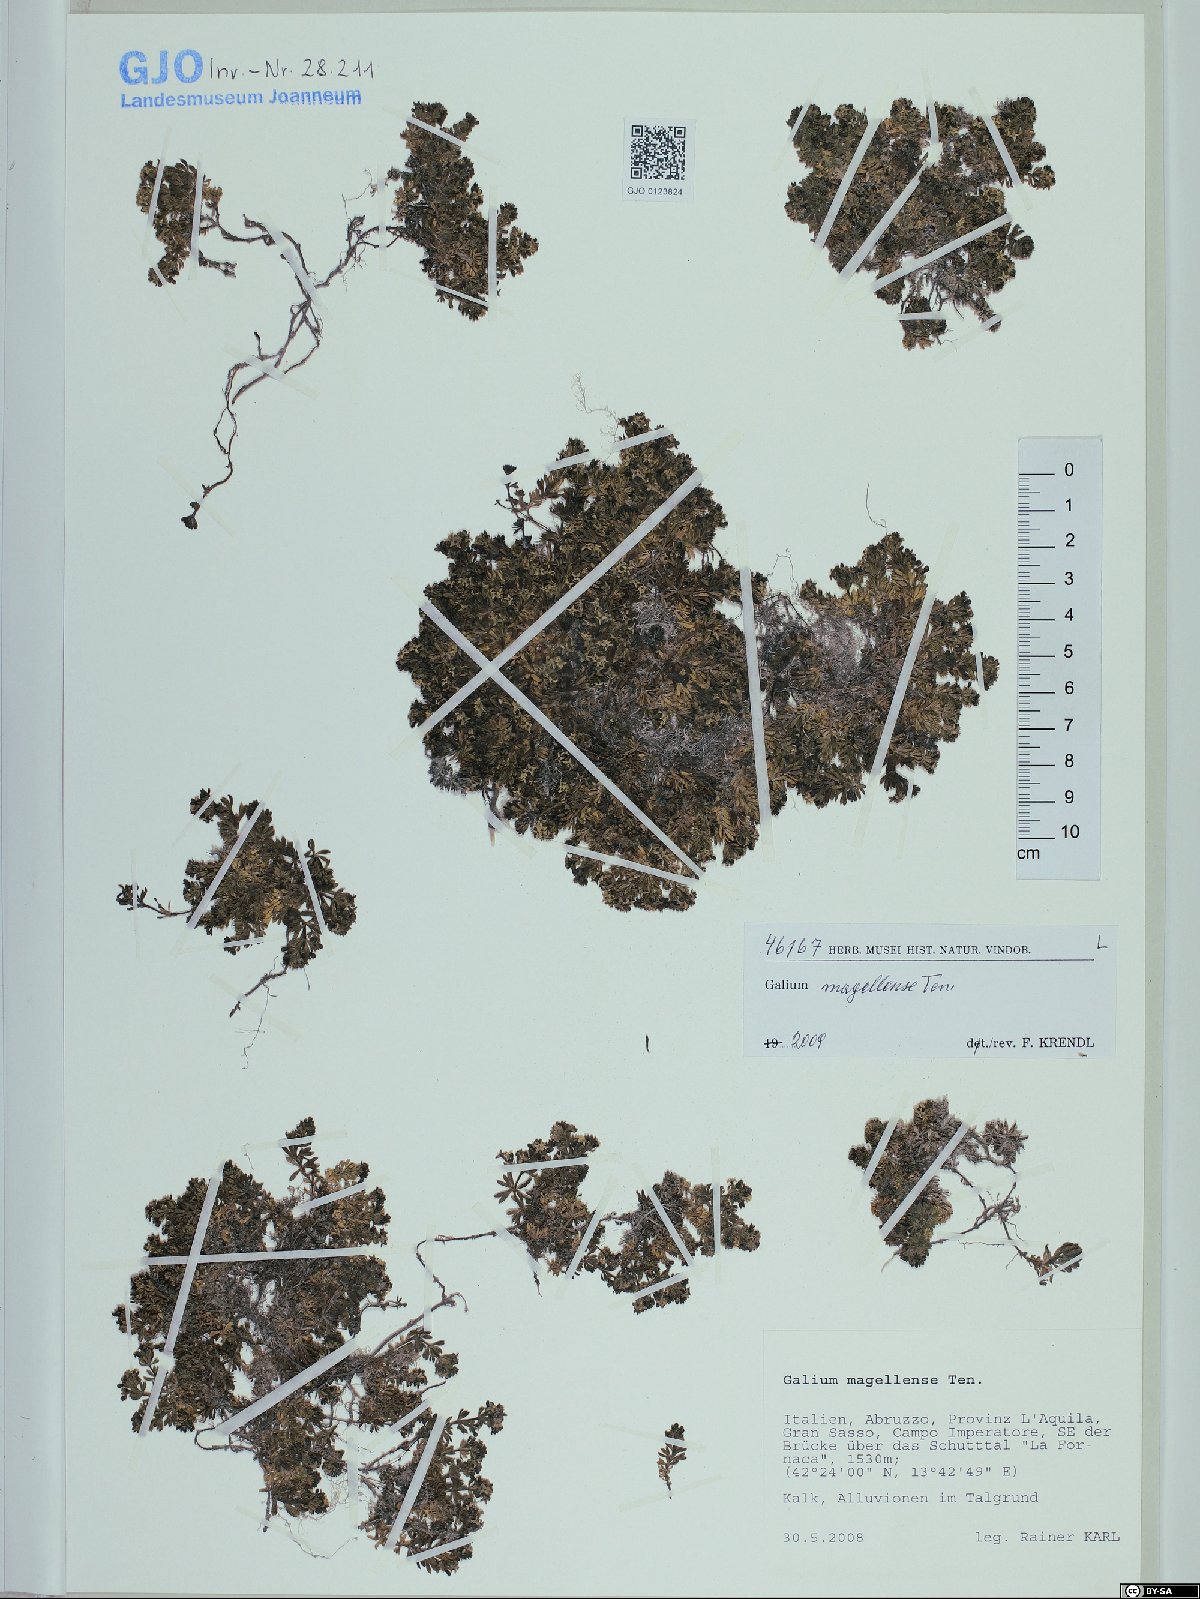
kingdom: Plantae
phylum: Tracheophyta
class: Magnoliopsida
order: Gentianales
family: Rubiaceae
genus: Galium
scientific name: Galium magellense
